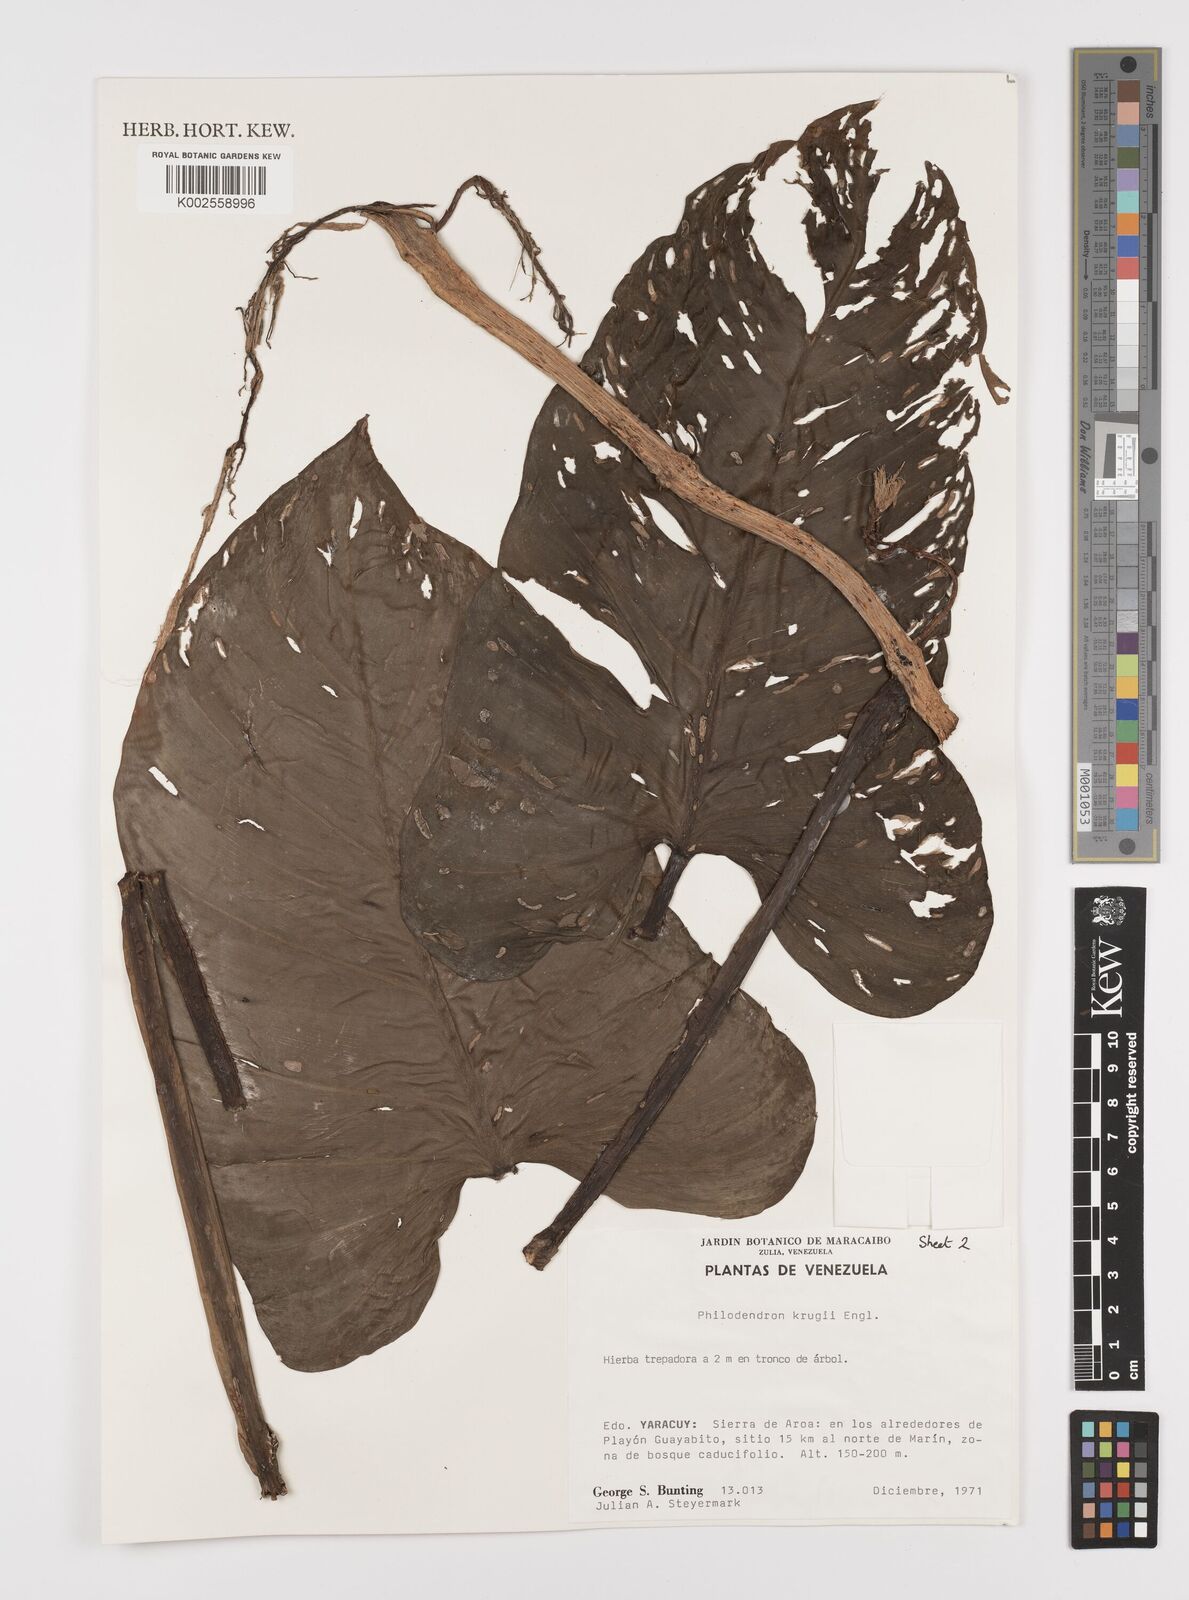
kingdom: Plantae
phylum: Tracheophyta
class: Liliopsida
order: Alismatales
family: Araceae
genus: Philodendron
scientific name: Philodendron krugii
